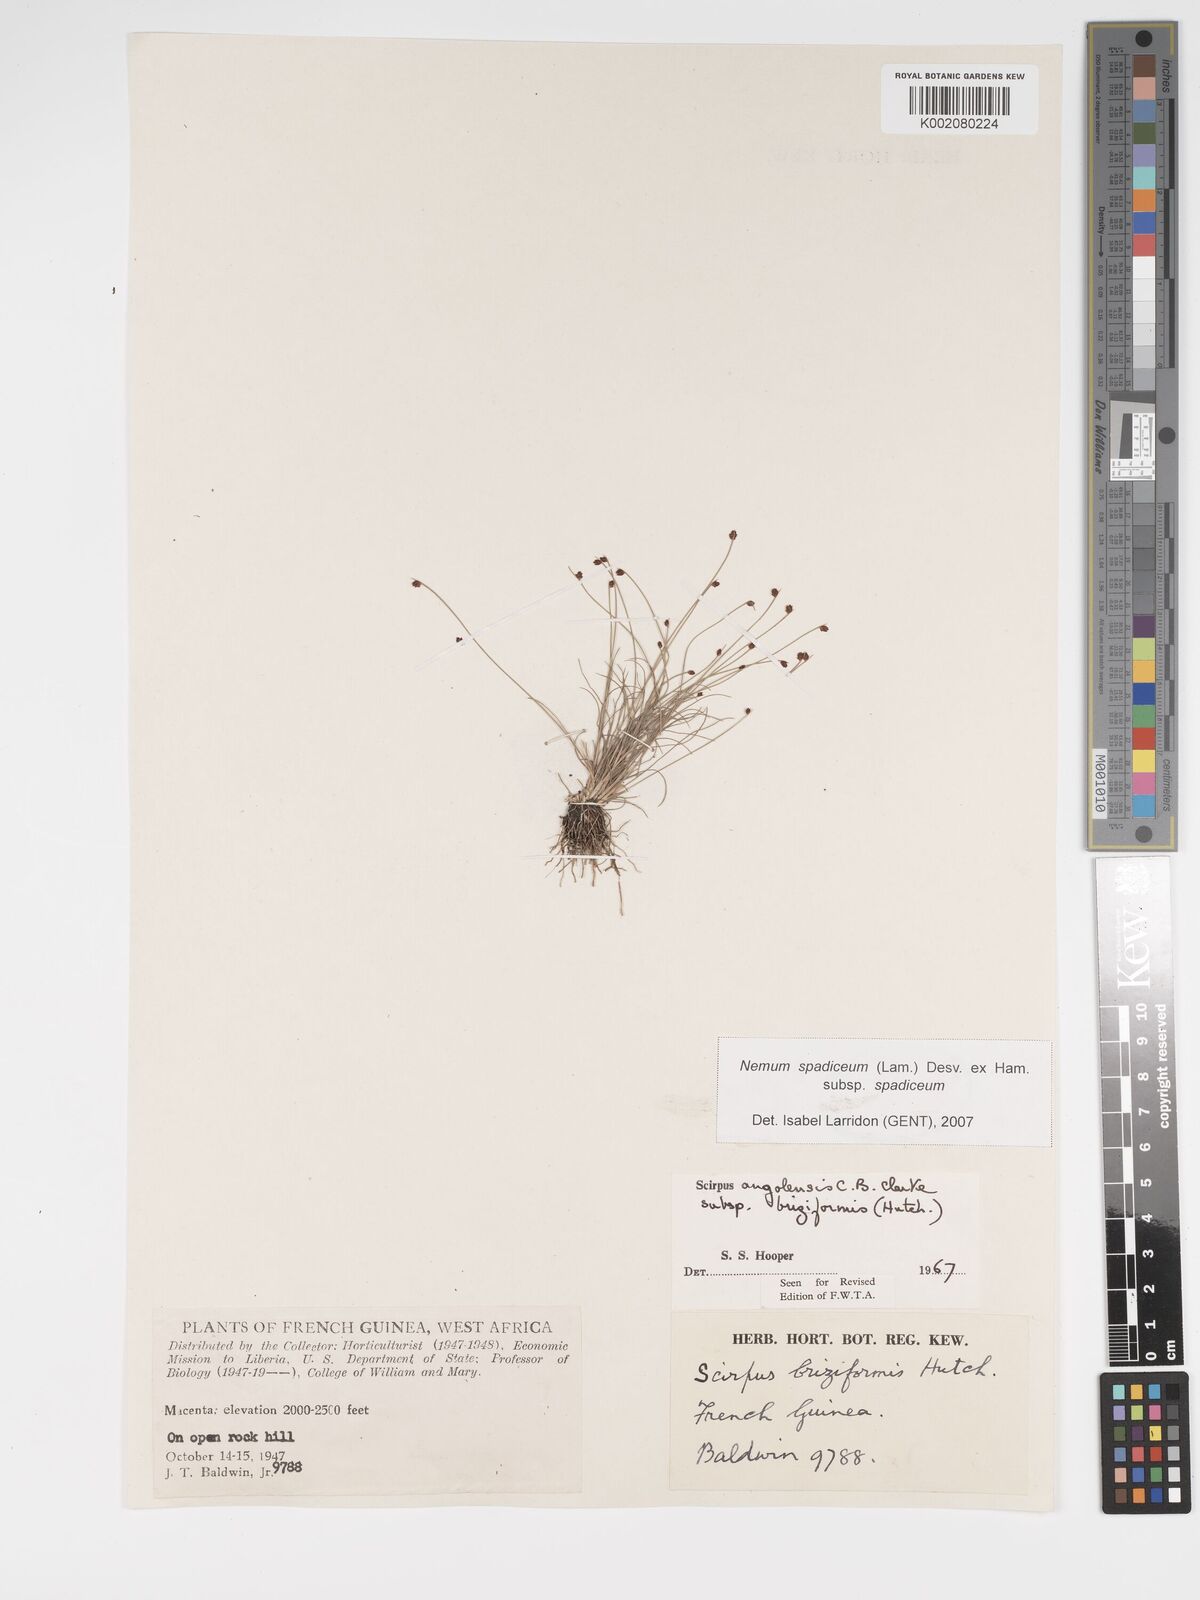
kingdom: Plantae
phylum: Tracheophyta
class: Liliopsida
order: Poales
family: Cyperaceae
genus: Bulbostylis
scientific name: Bulbostylis briziformis
